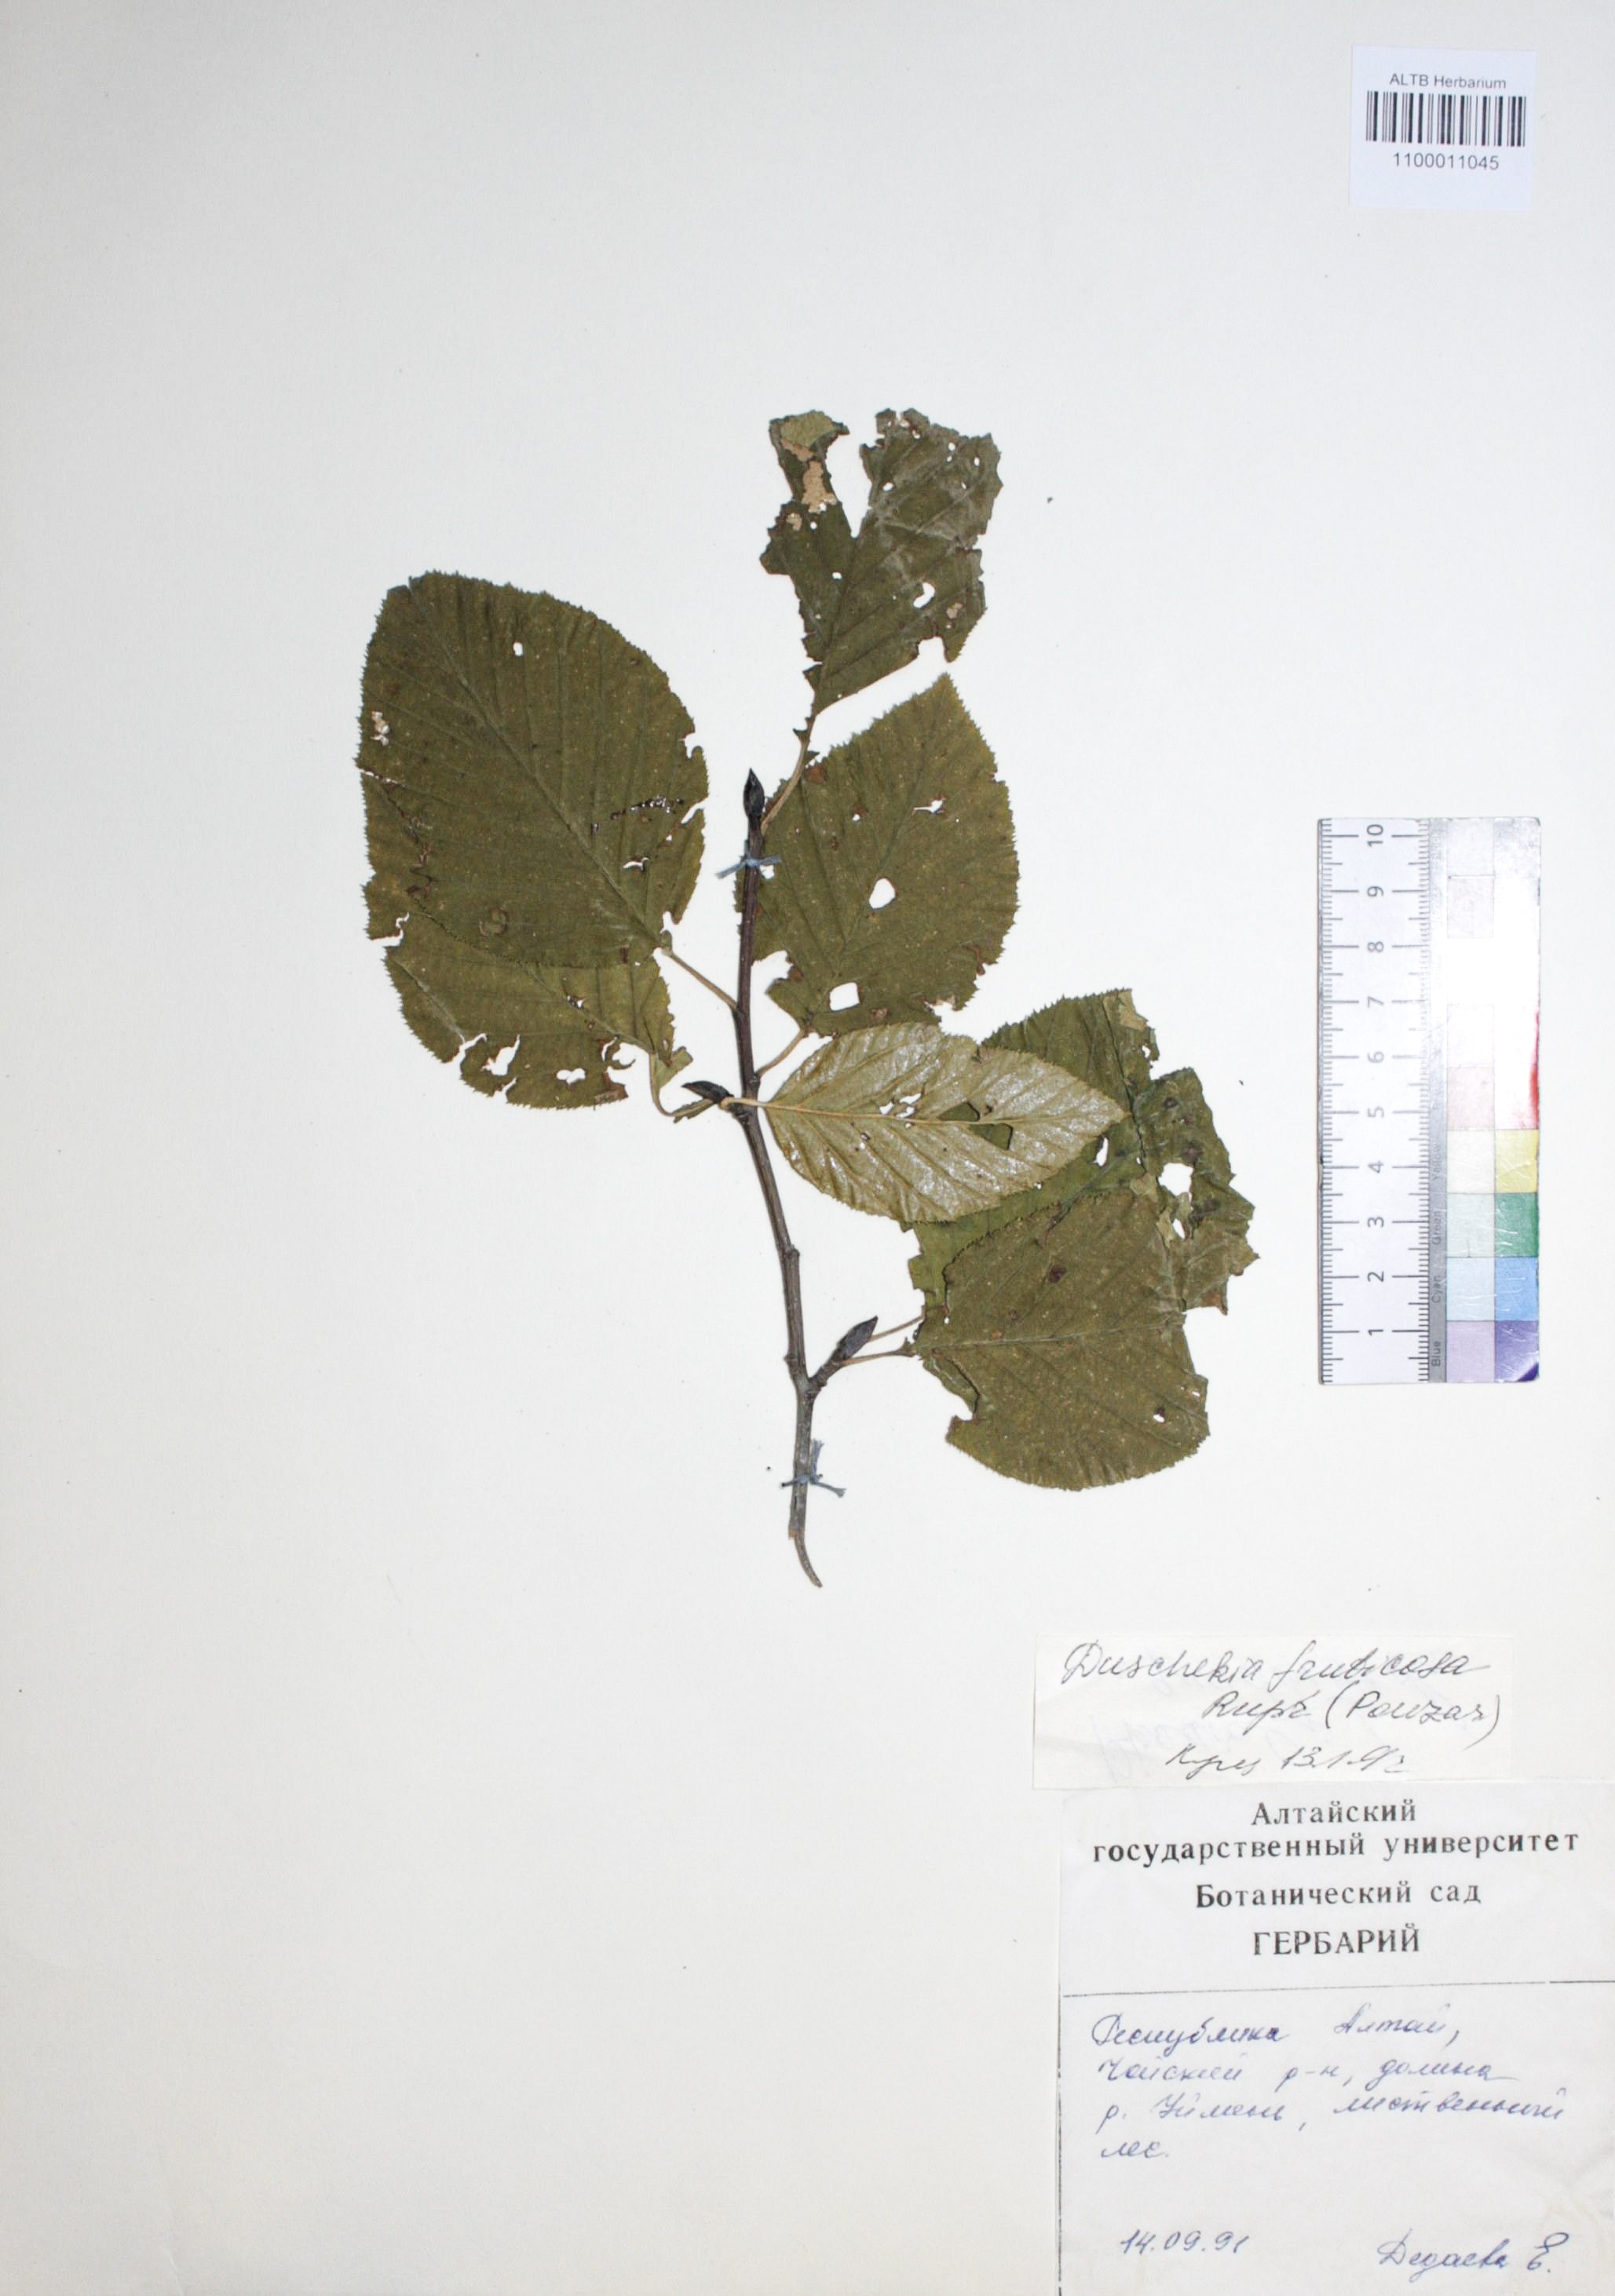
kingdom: Plantae
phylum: Tracheophyta
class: Magnoliopsida
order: Fagales
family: Betulaceae
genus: Alnus
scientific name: Alnus alnobetula
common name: Green alder
